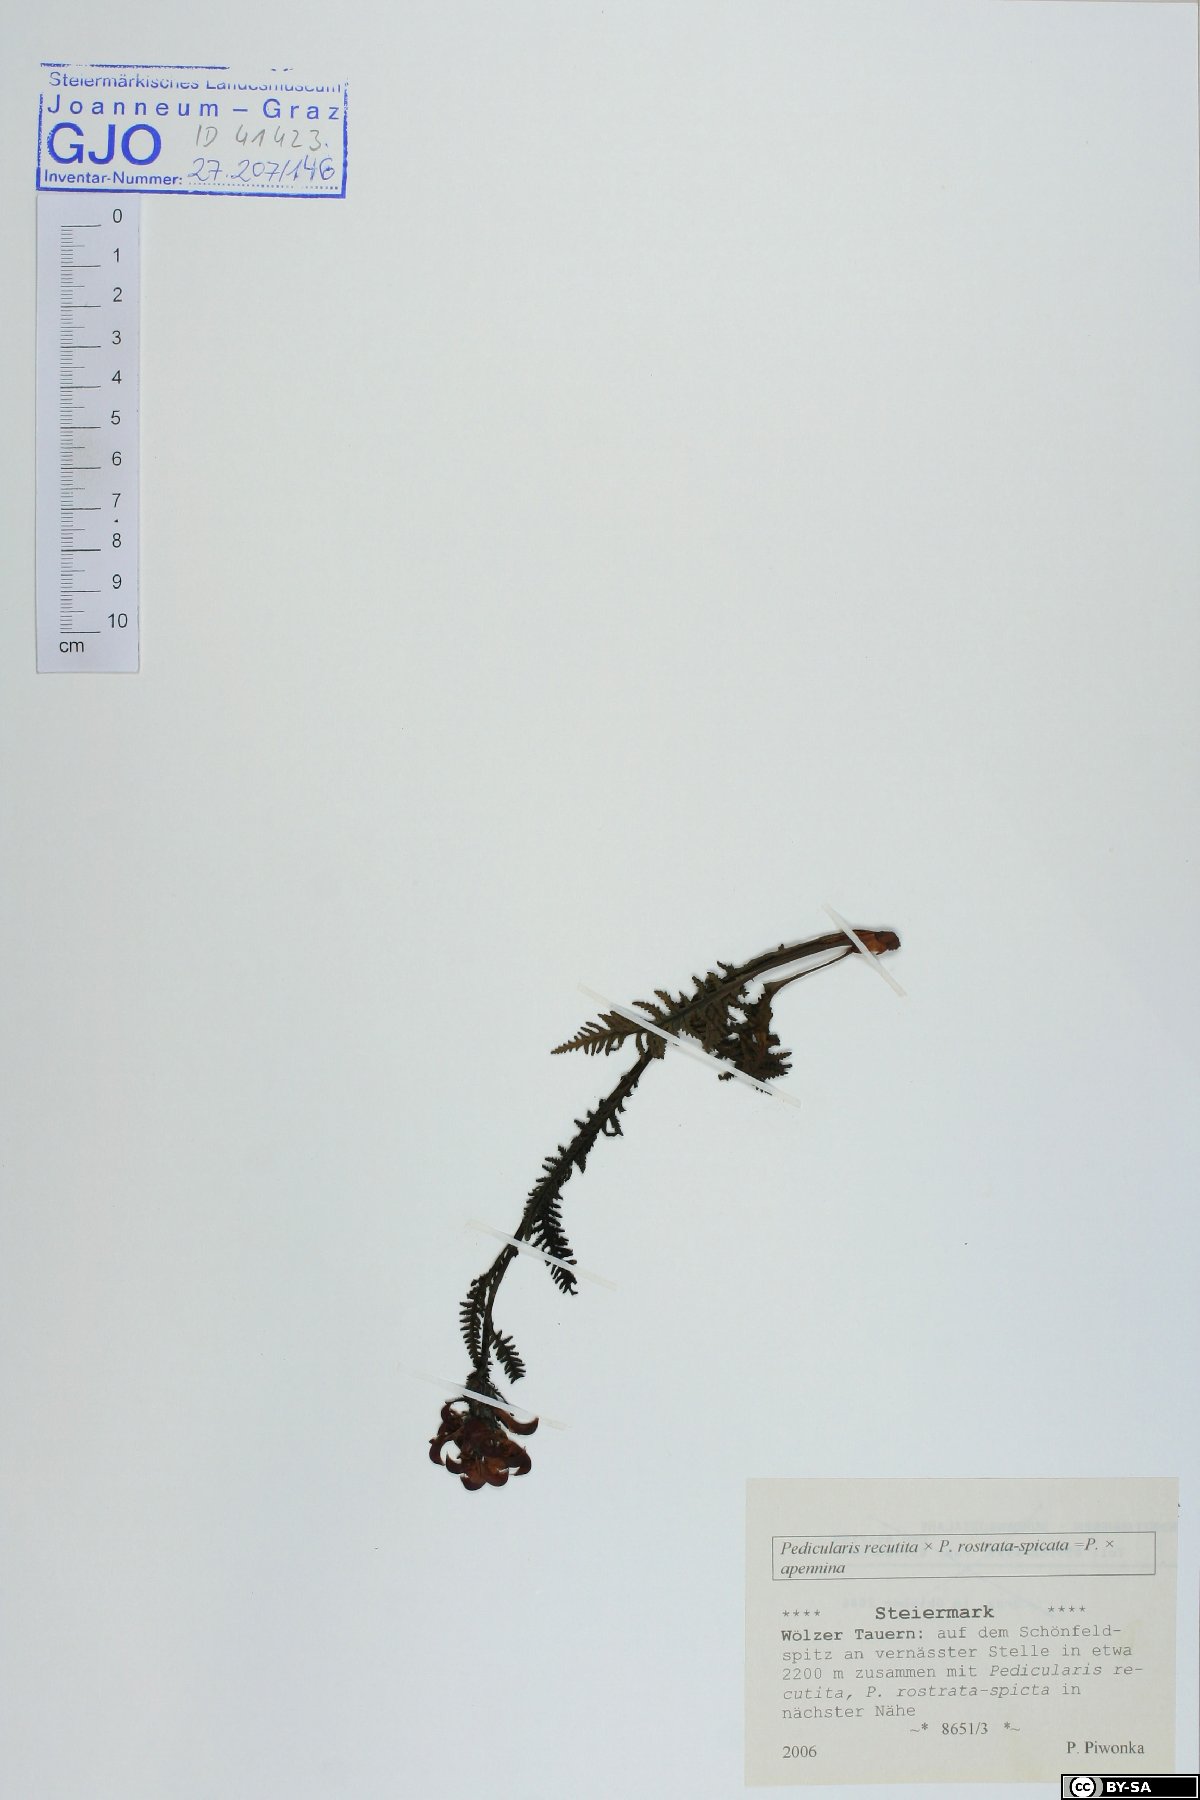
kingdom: Plantae
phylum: Tracheophyta
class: Magnoliopsida
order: Lamiales
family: Scrophulariaceae
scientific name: Scrophulariaceae
